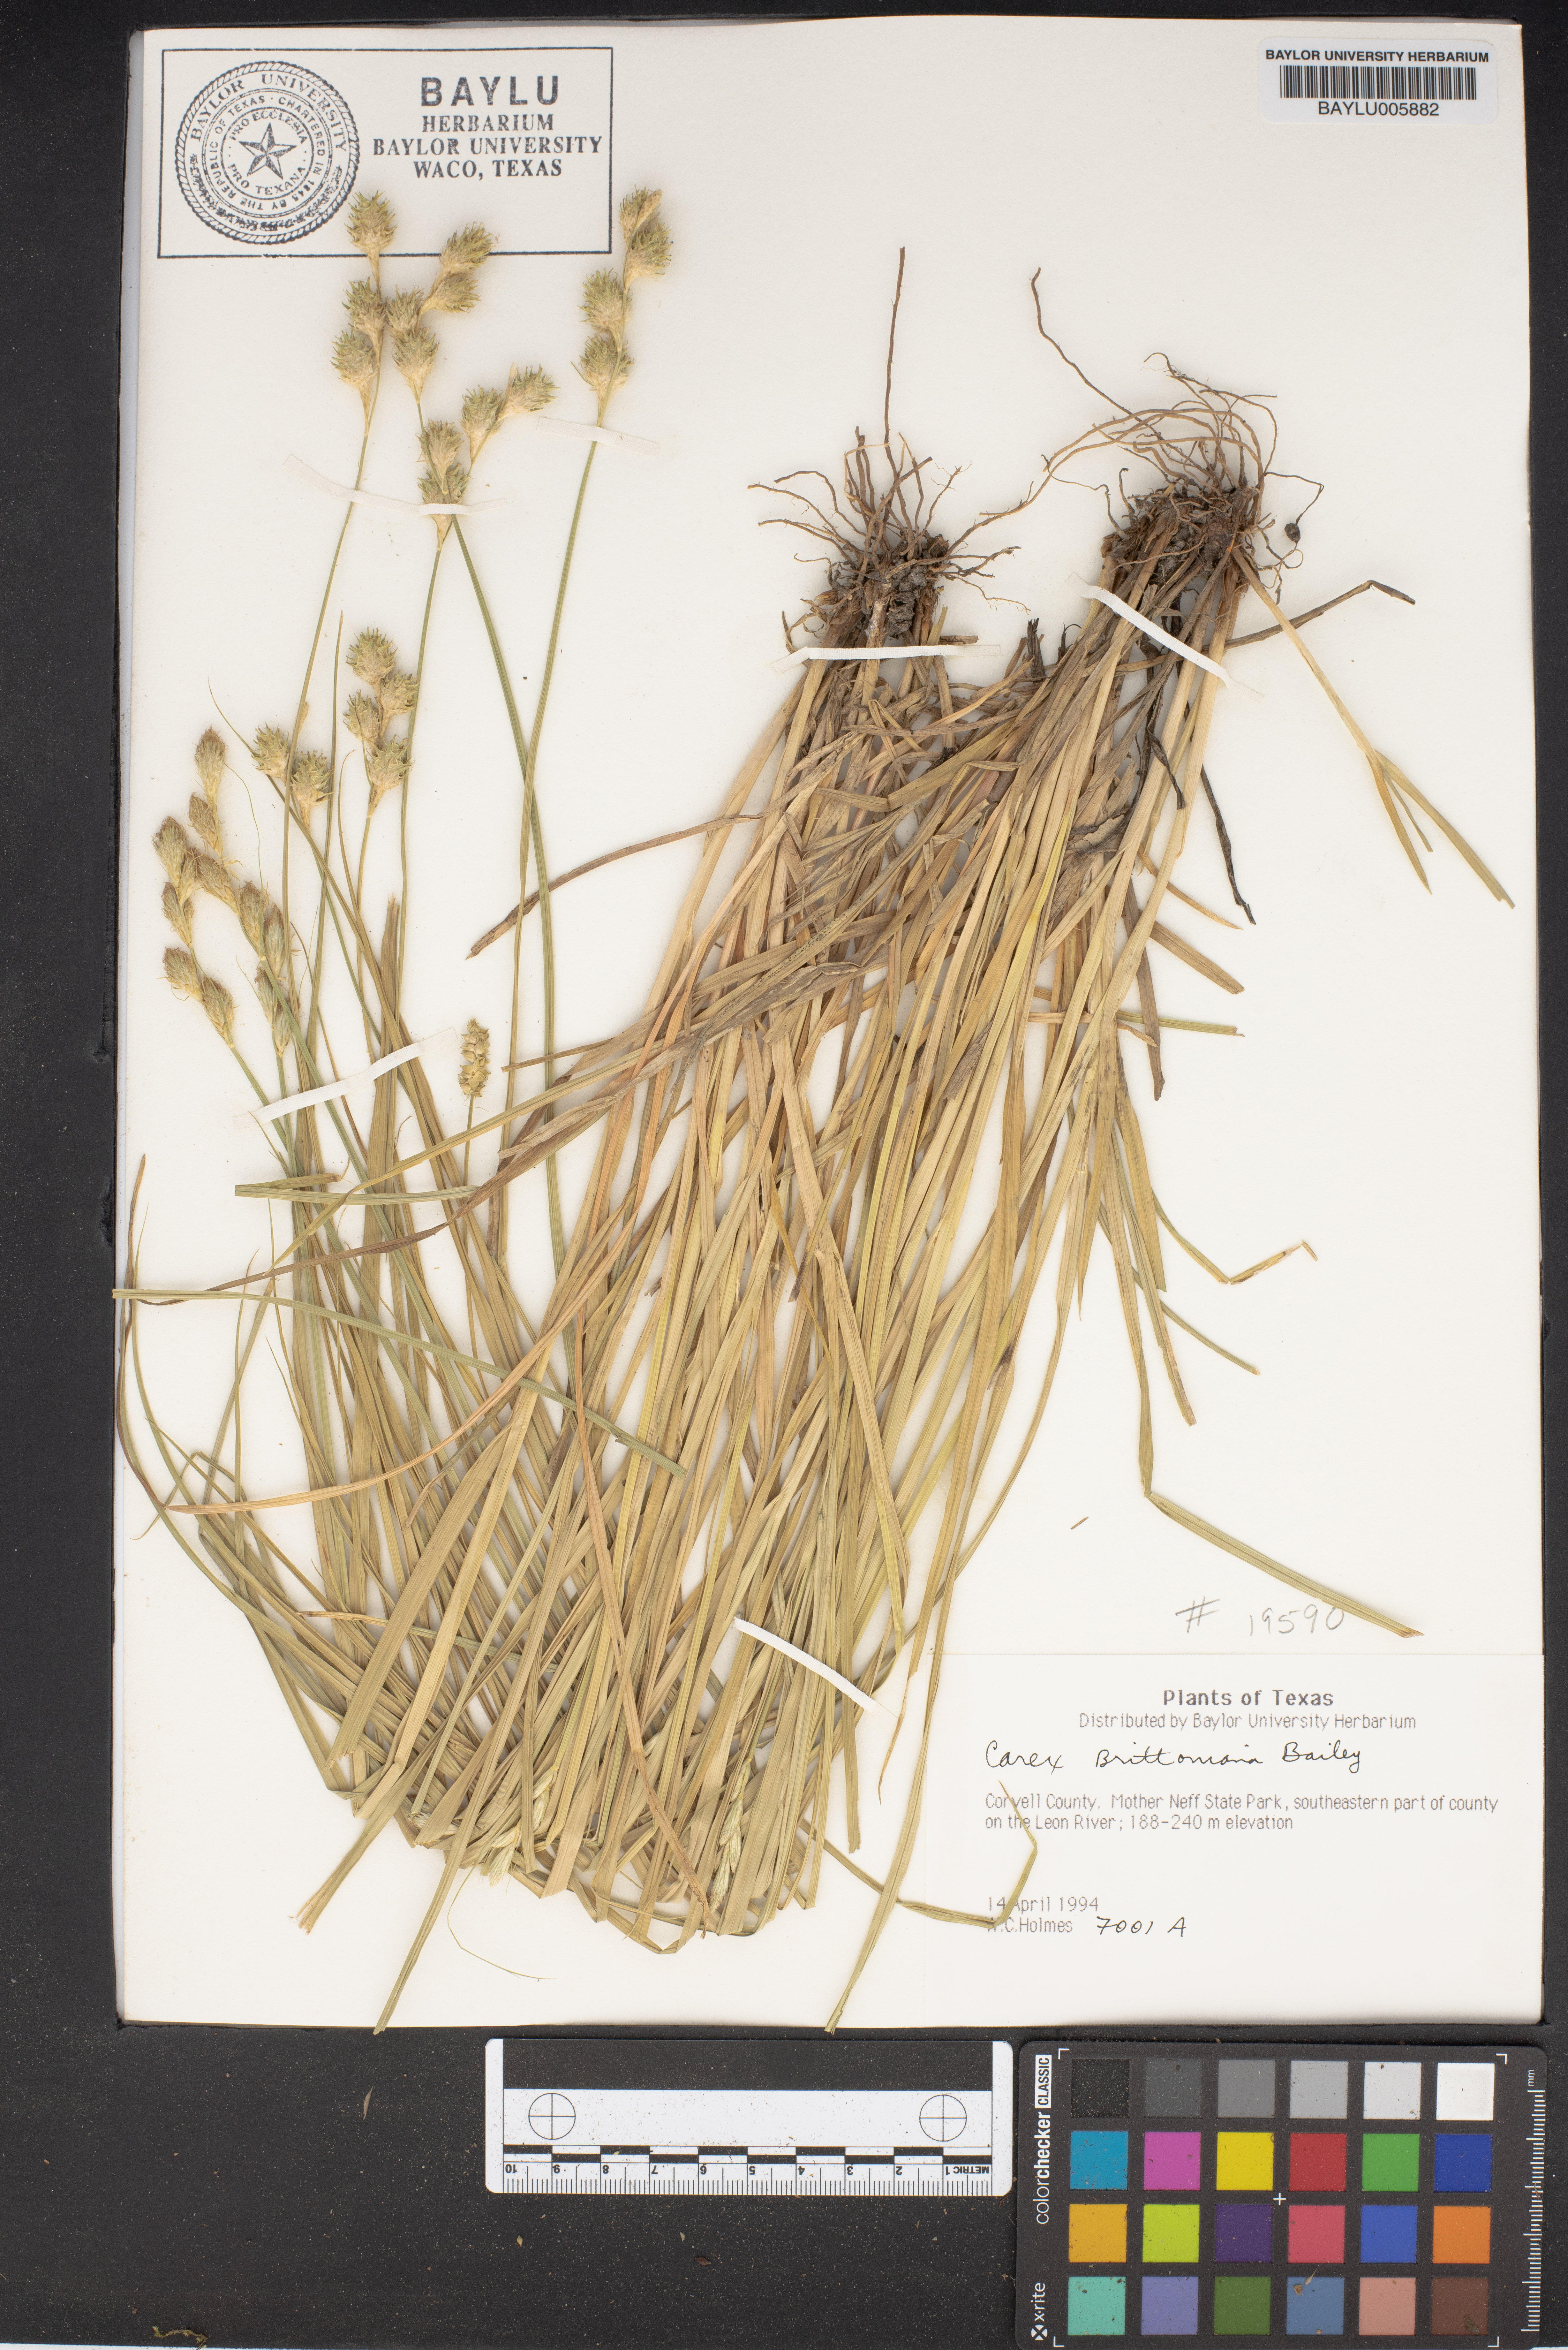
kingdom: Plantae
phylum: Tracheophyta
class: Liliopsida
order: Poales
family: Cyperaceae
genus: Carex
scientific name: Carex tetrastachya
